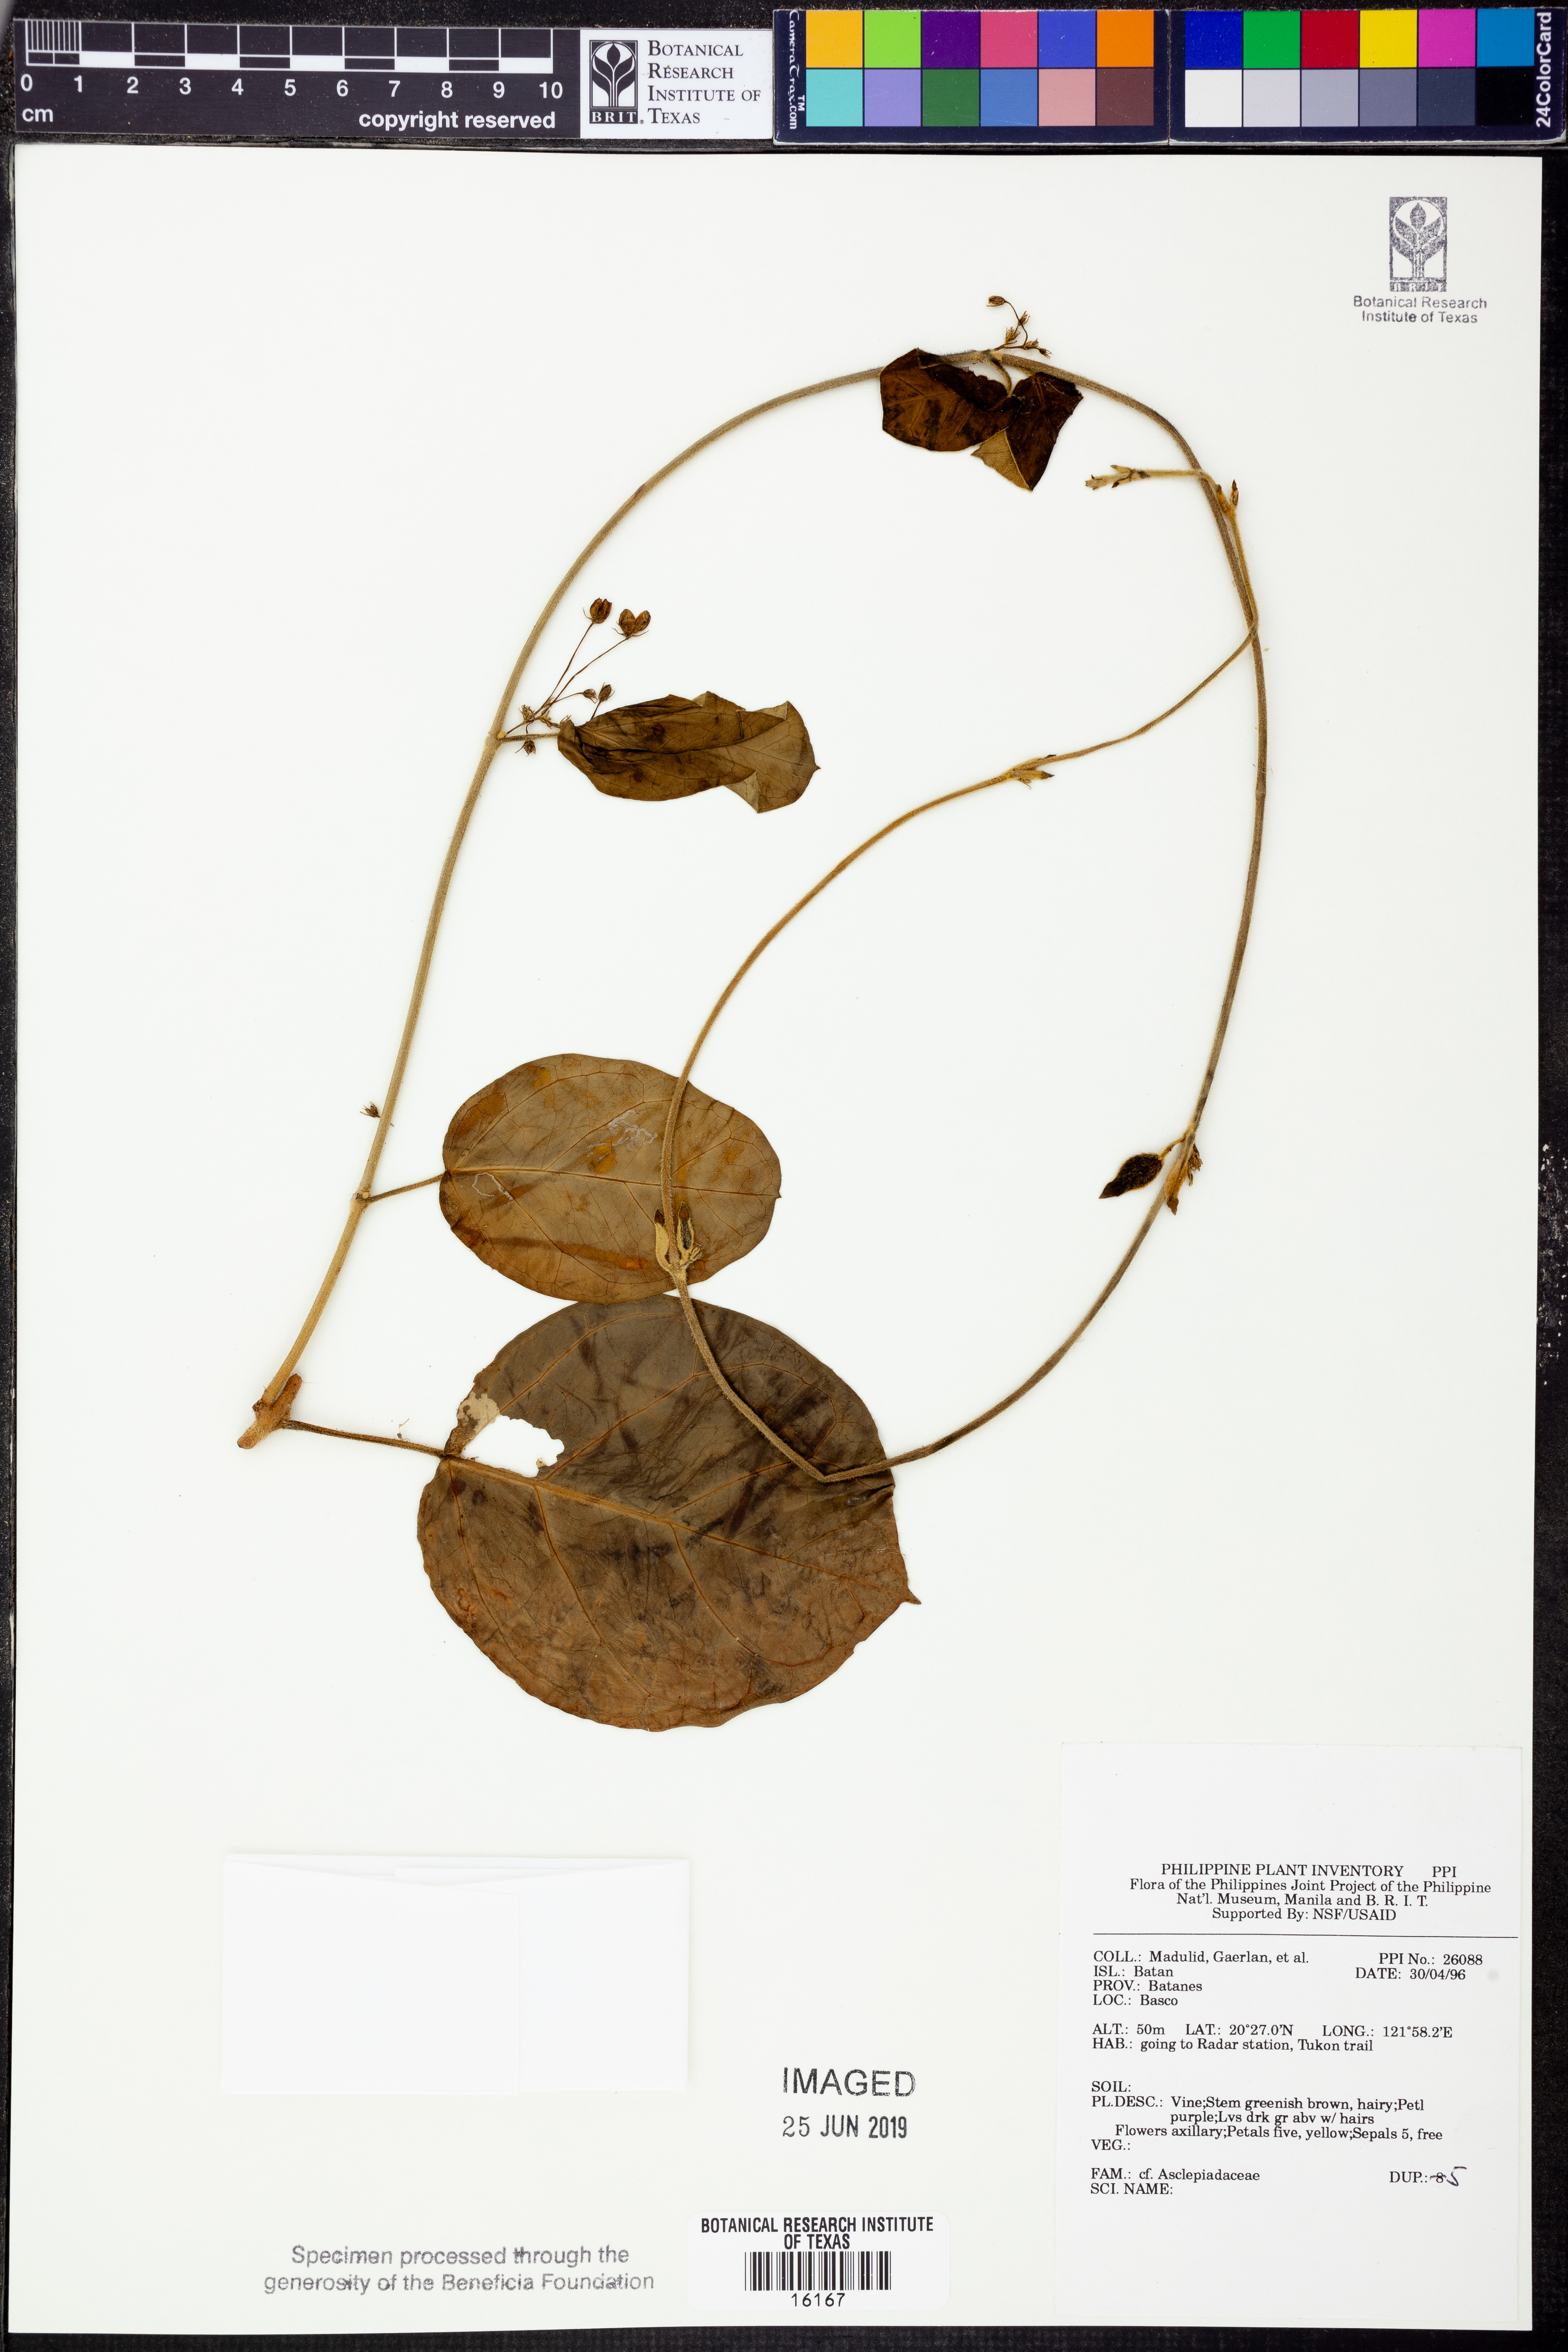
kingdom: Plantae
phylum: Tracheophyta
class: Magnoliopsida
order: Gentianales
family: Apocynaceae
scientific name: Apocynaceae
